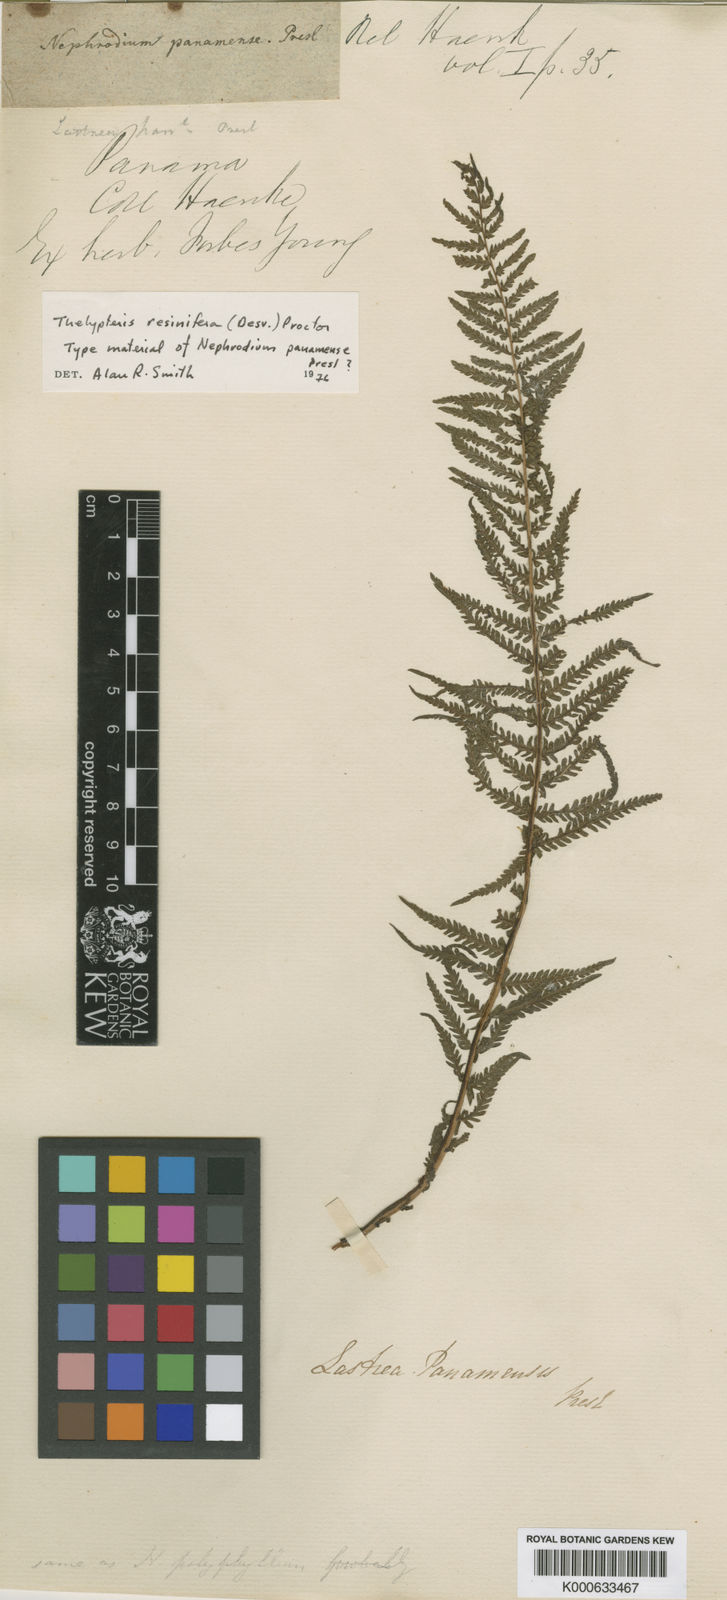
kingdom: Plantae
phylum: Tracheophyta
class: Polypodiopsida
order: Polypodiales
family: Thelypteridaceae
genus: Amauropelta
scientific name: Amauropelta resinifera
